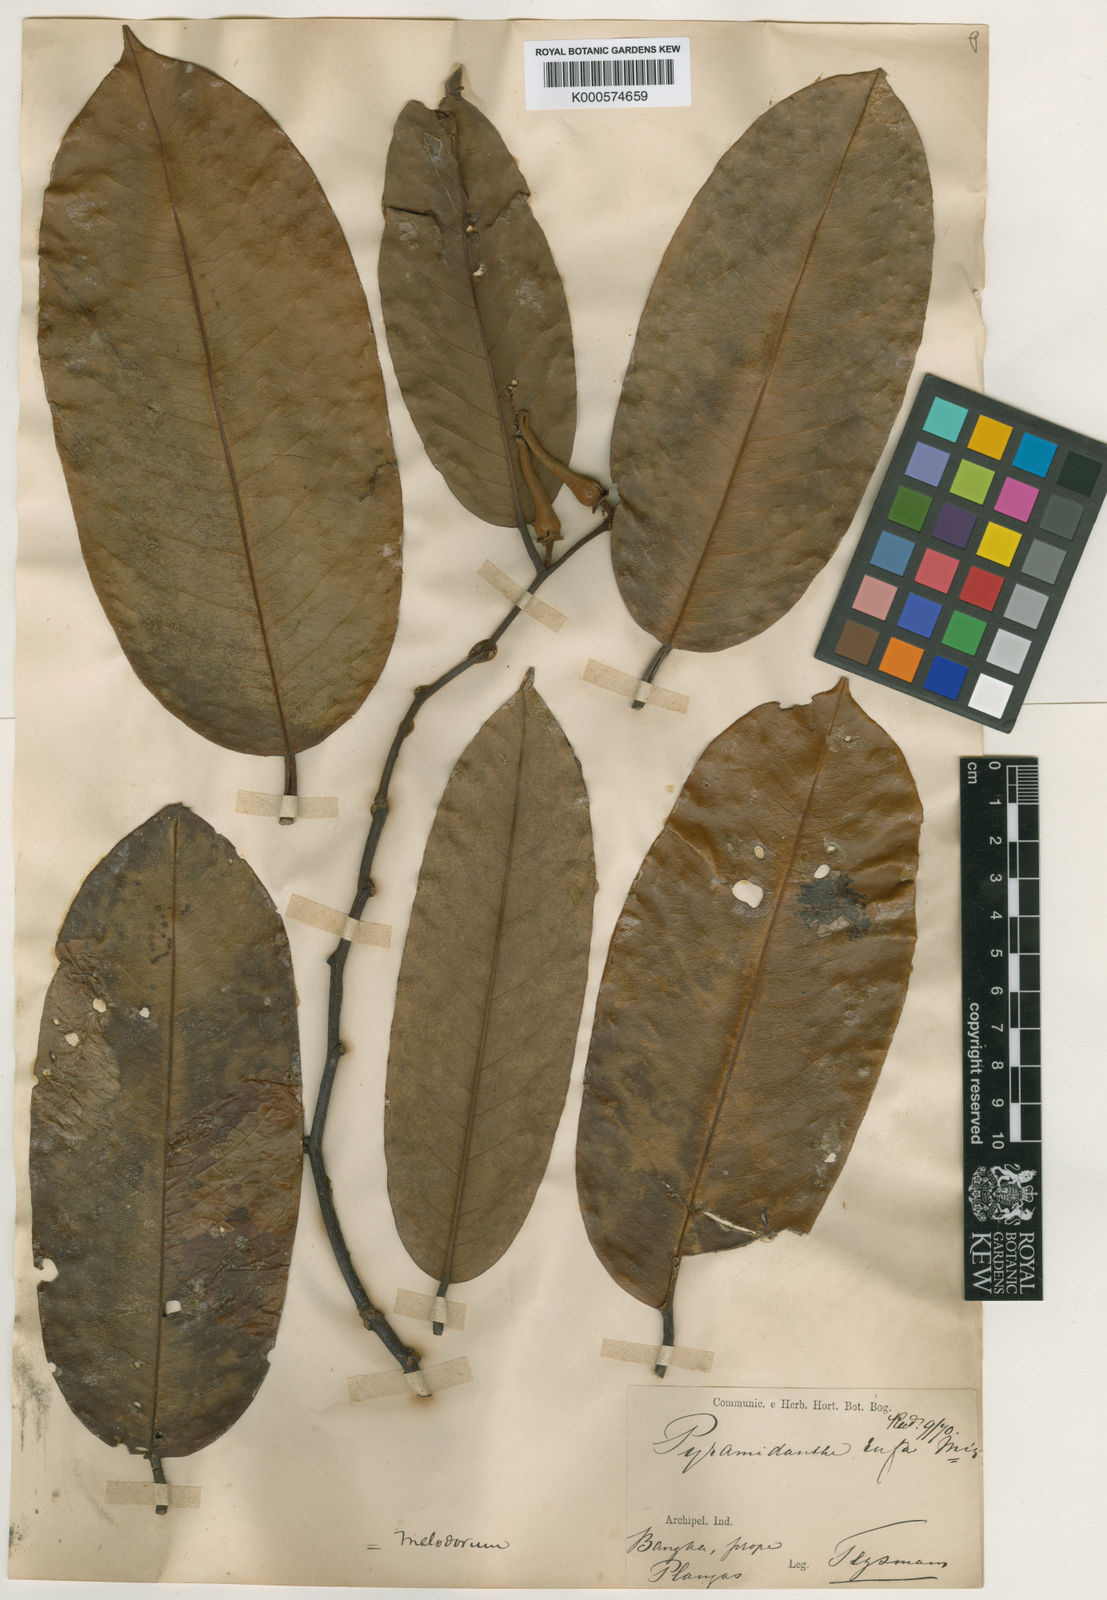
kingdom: Plantae
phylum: Tracheophyta
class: Magnoliopsida
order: Magnoliales
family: Annonaceae
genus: Pyramidanthe
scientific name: Pyramidanthe prismatica
